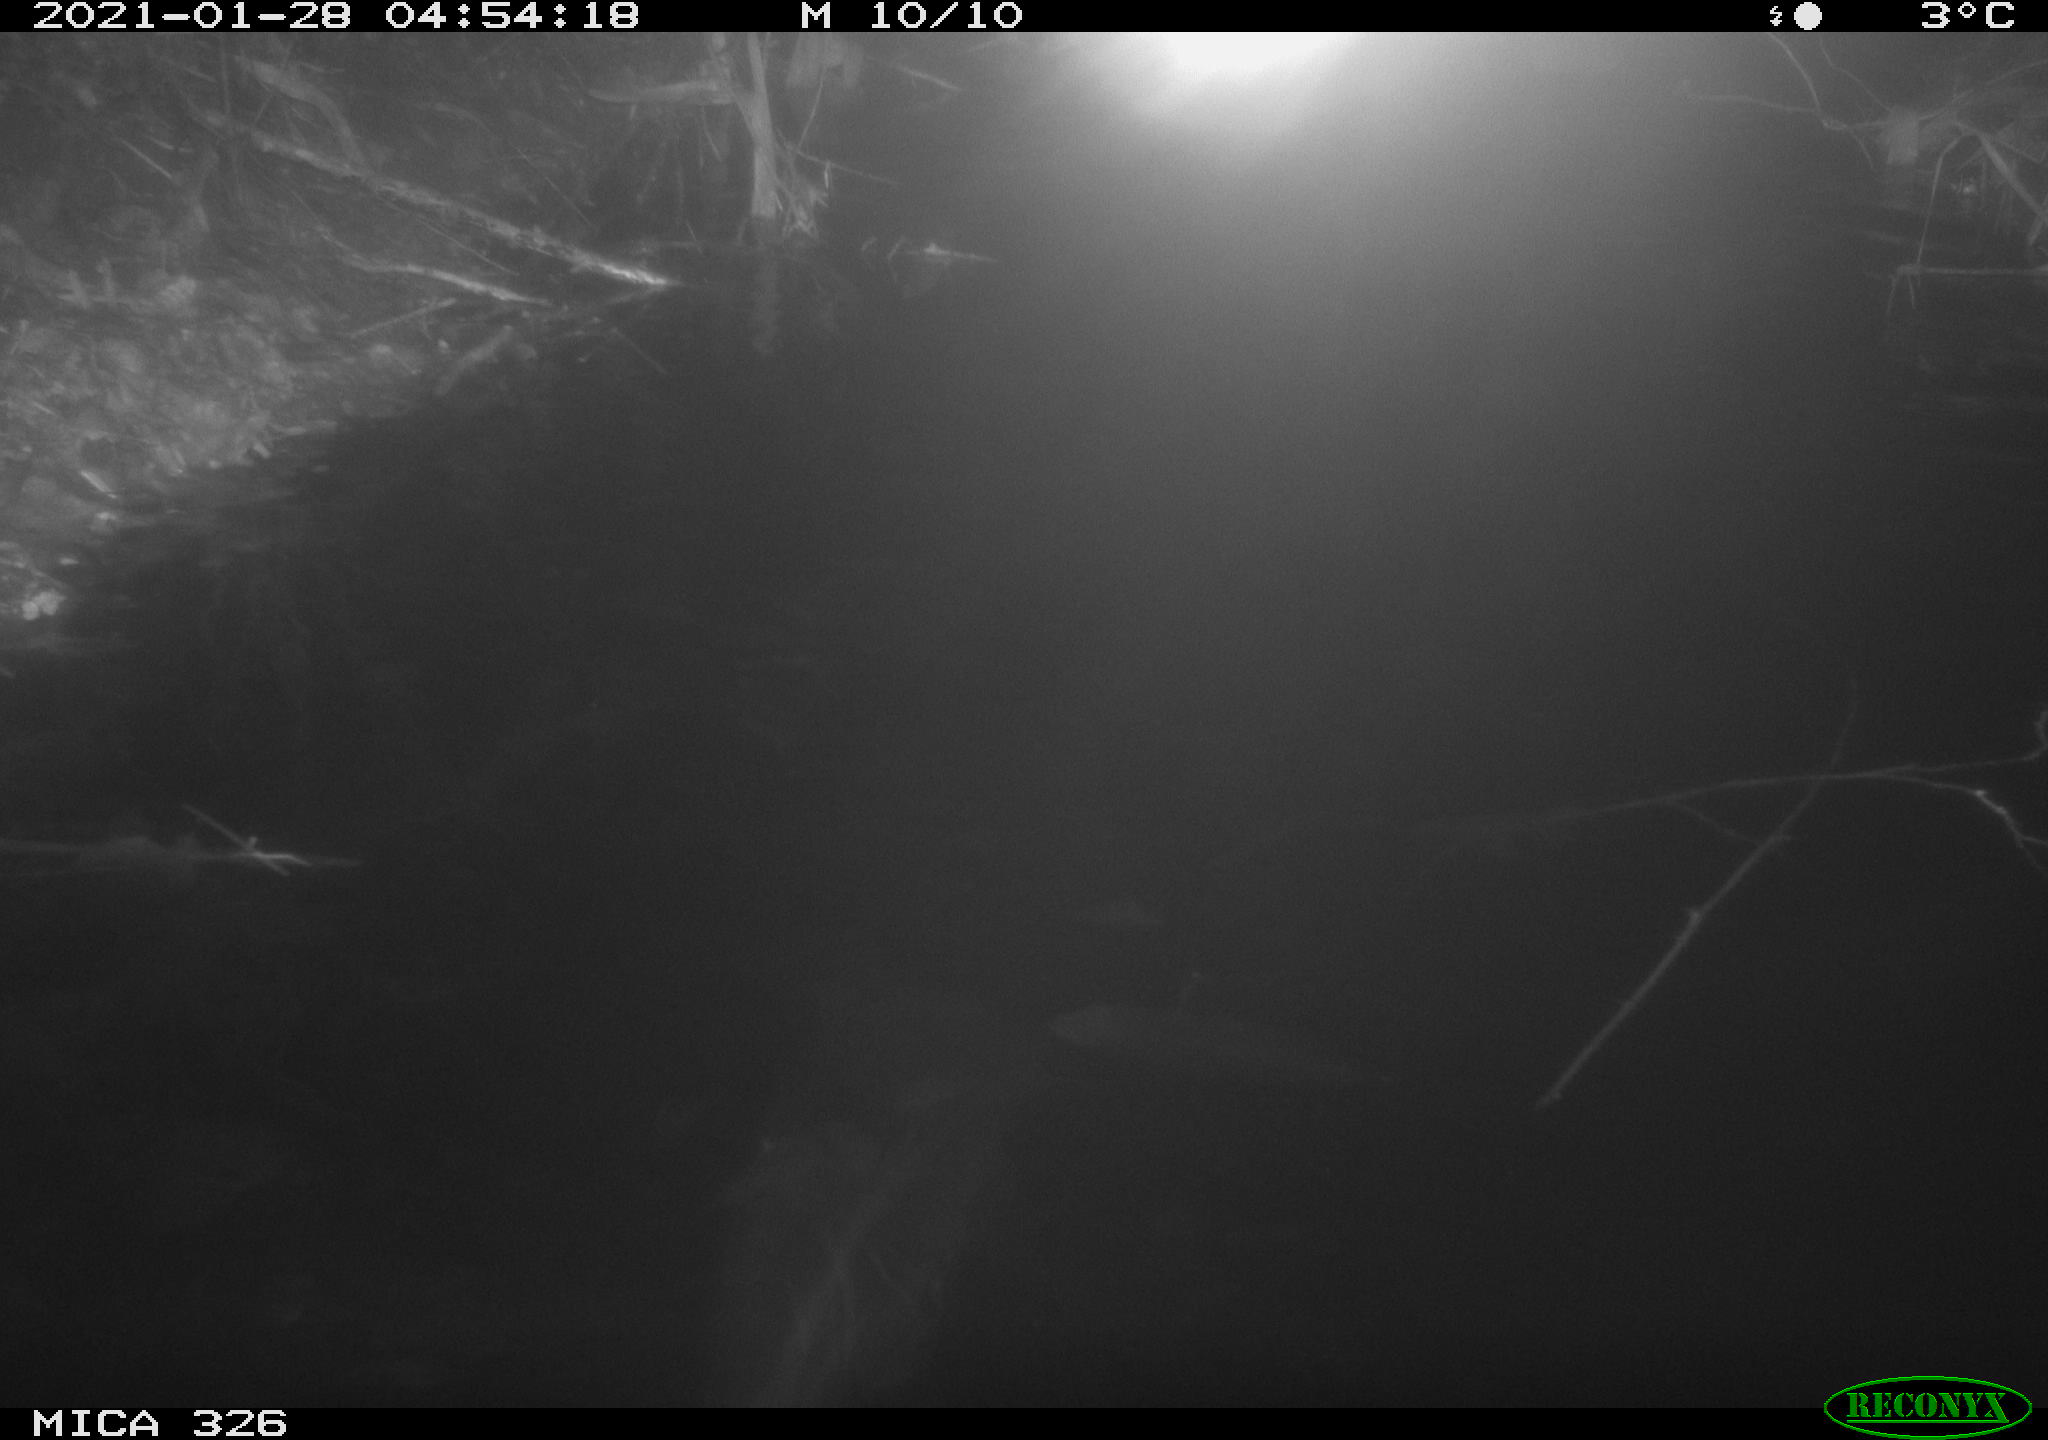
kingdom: Animalia
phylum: Chordata
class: Mammalia
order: Rodentia
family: Cricetidae
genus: Ondatra
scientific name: Ondatra zibethicus
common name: Muskrat
